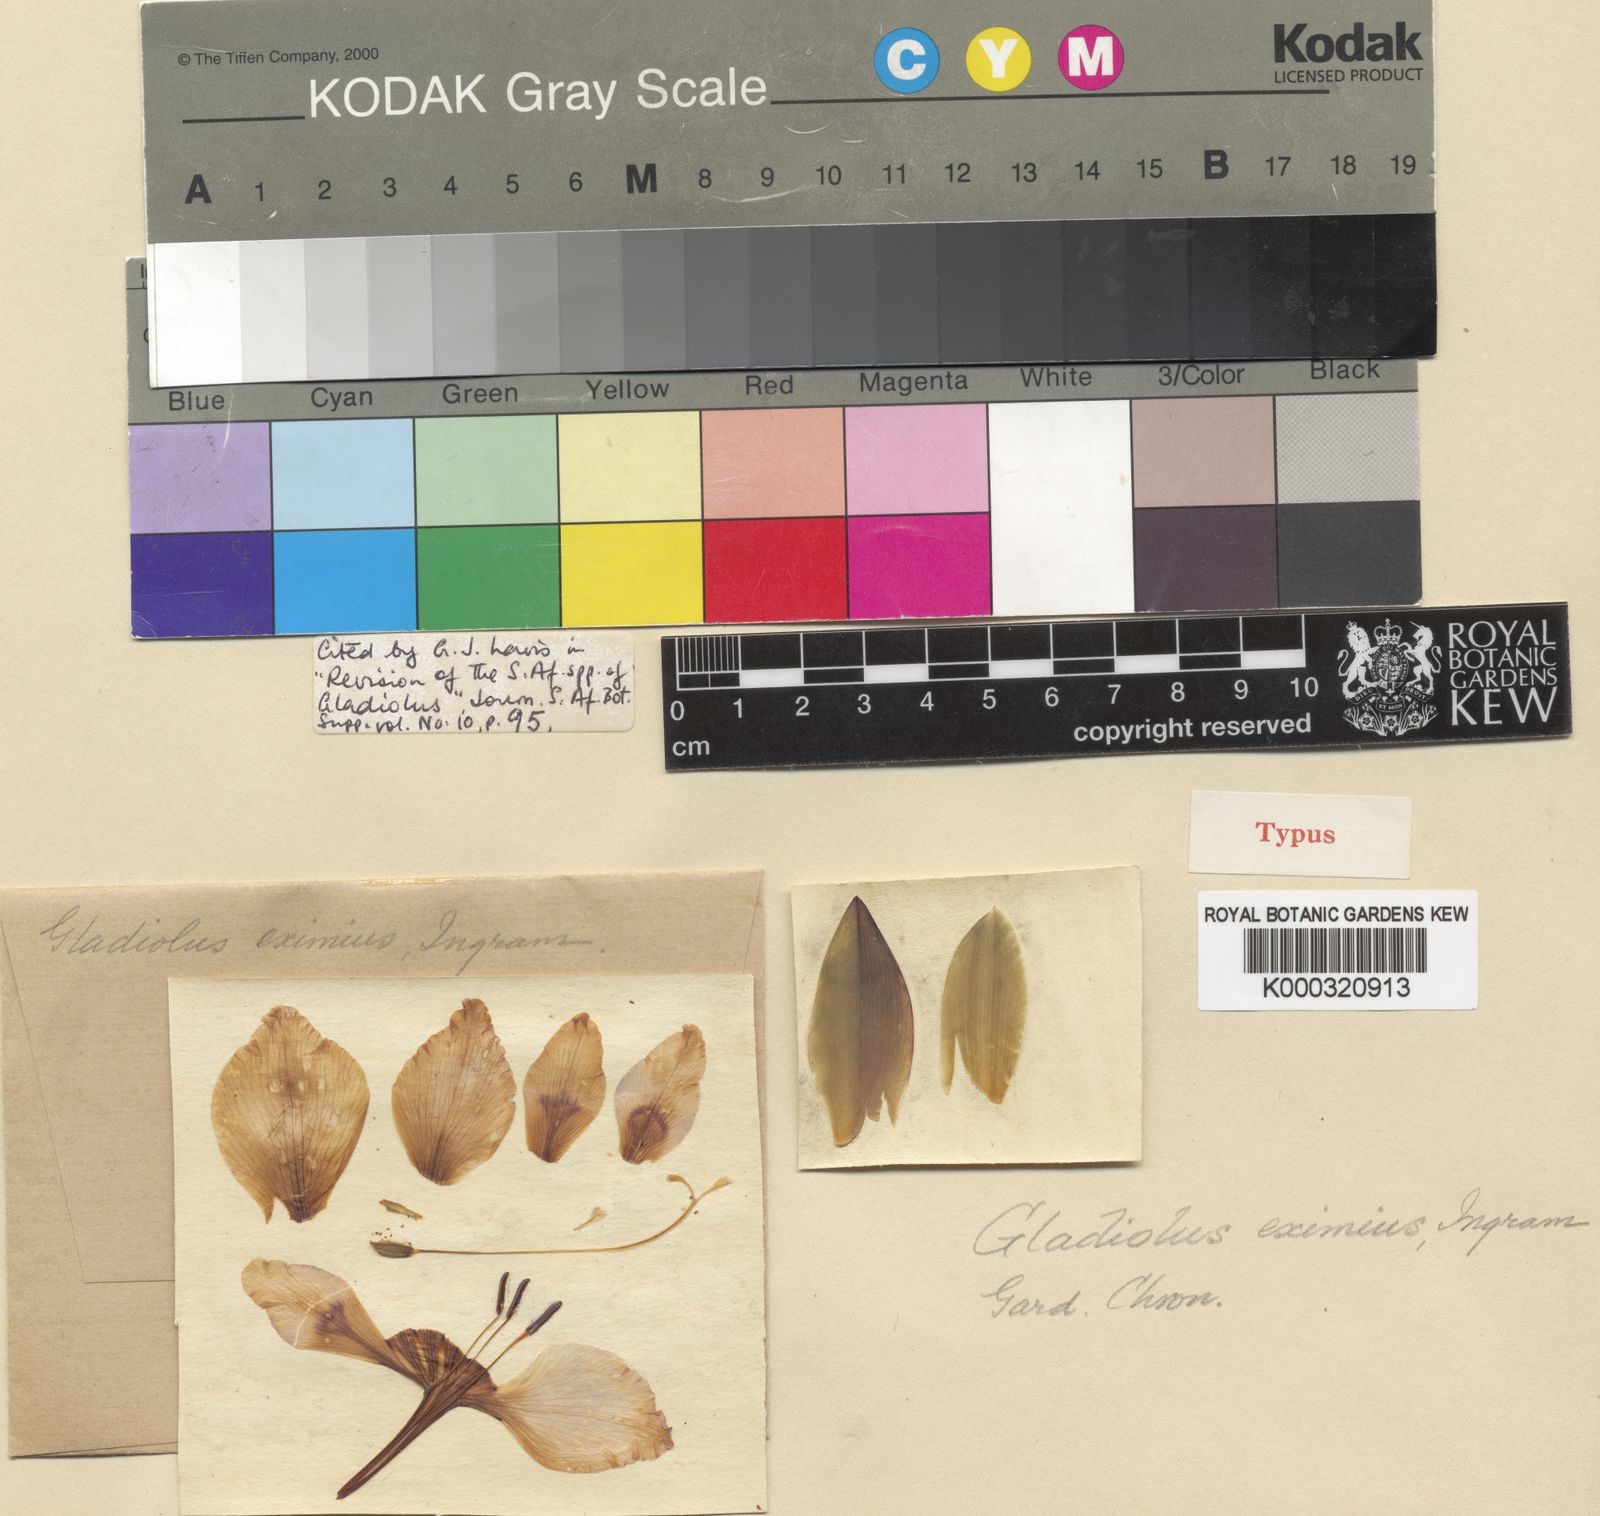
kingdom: Plantae
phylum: Tracheophyta
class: Liliopsida
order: Asparagales
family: Iridaceae
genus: Gladiolus
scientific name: Gladiolus carneus
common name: Painted-lady
